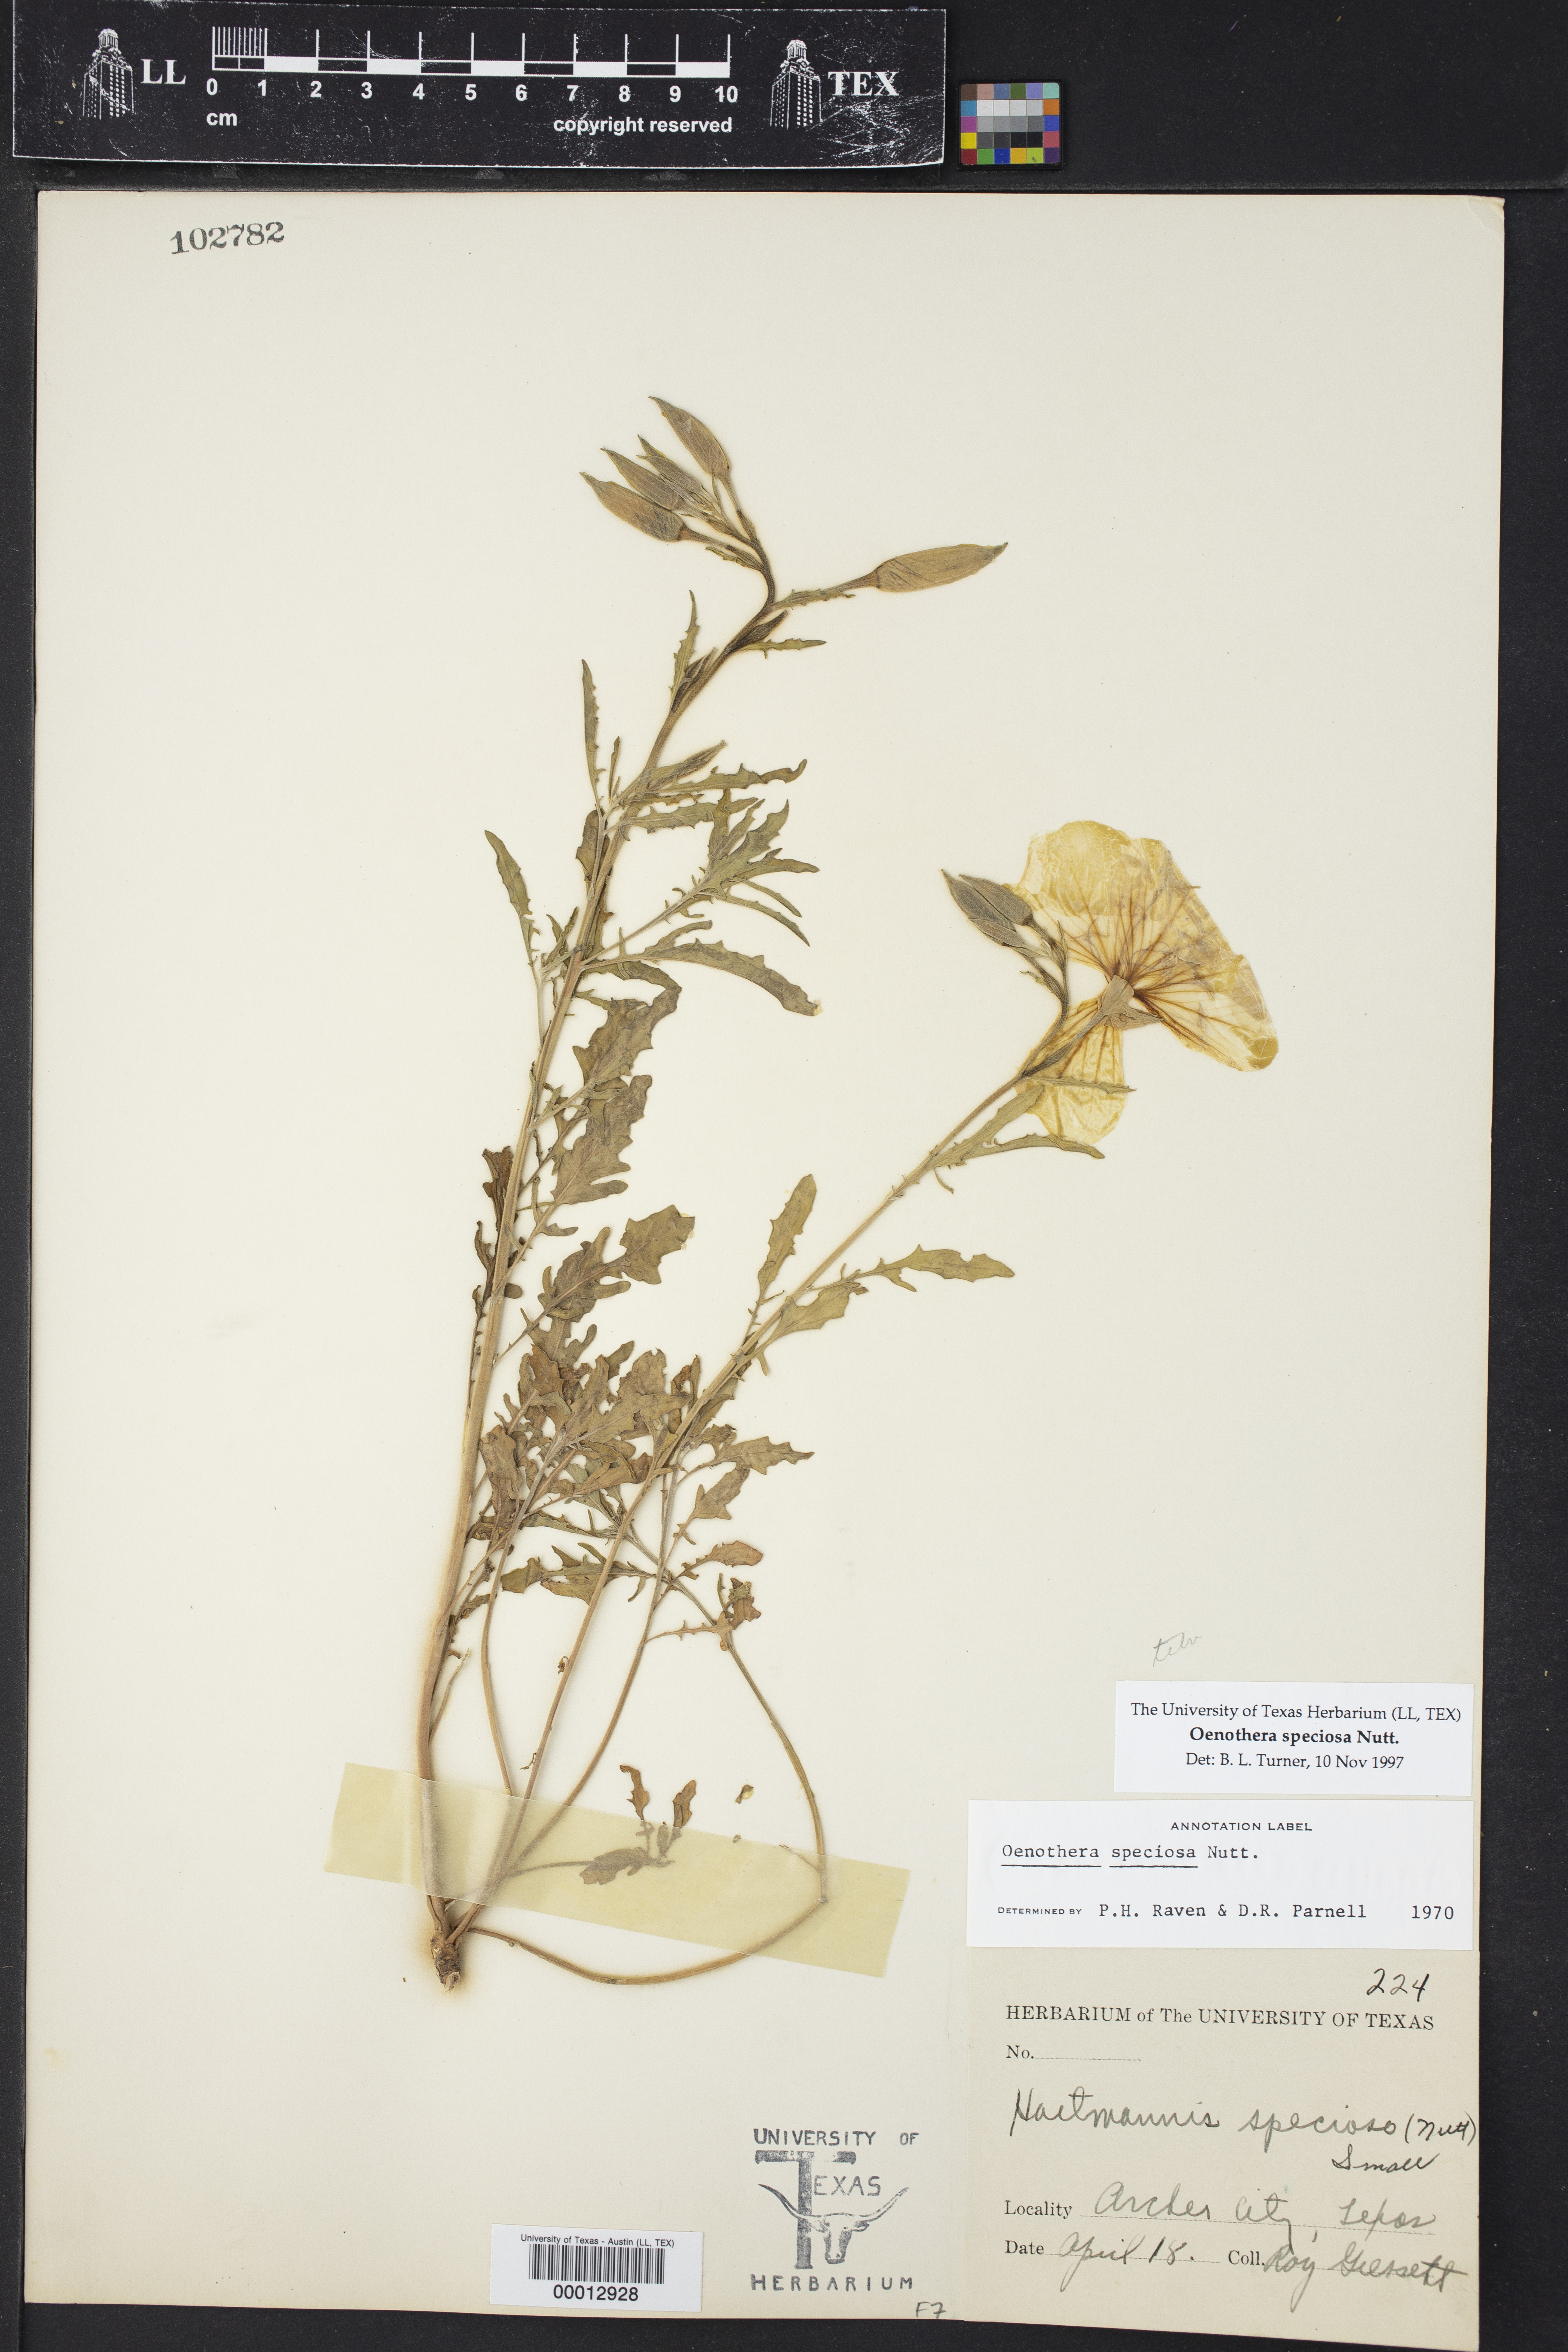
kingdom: Plantae
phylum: Tracheophyta
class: Magnoliopsida
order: Myrtales
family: Onagraceae
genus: Oenothera
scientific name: Oenothera speciosa
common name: White evening-primrose
